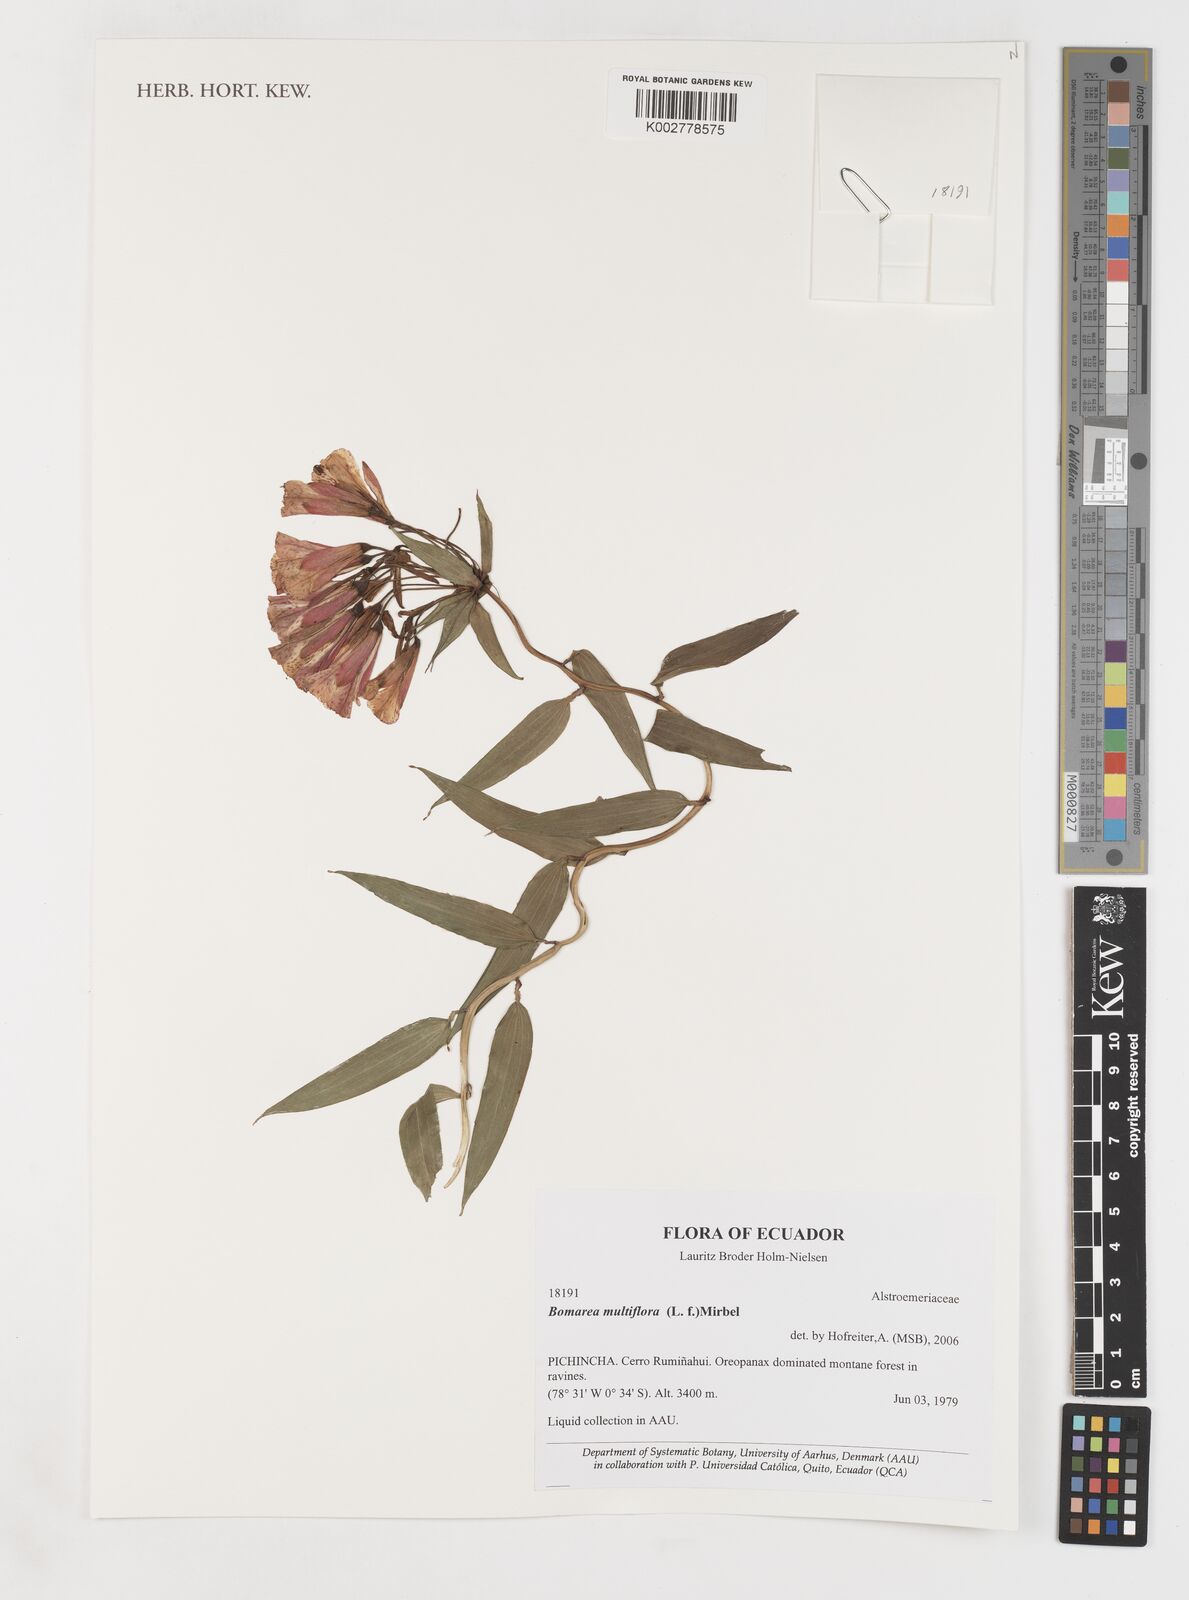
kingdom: Plantae
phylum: Tracheophyta
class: Liliopsida
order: Liliales
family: Alstroemeriaceae
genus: Bomarea
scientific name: Bomarea multiflora
